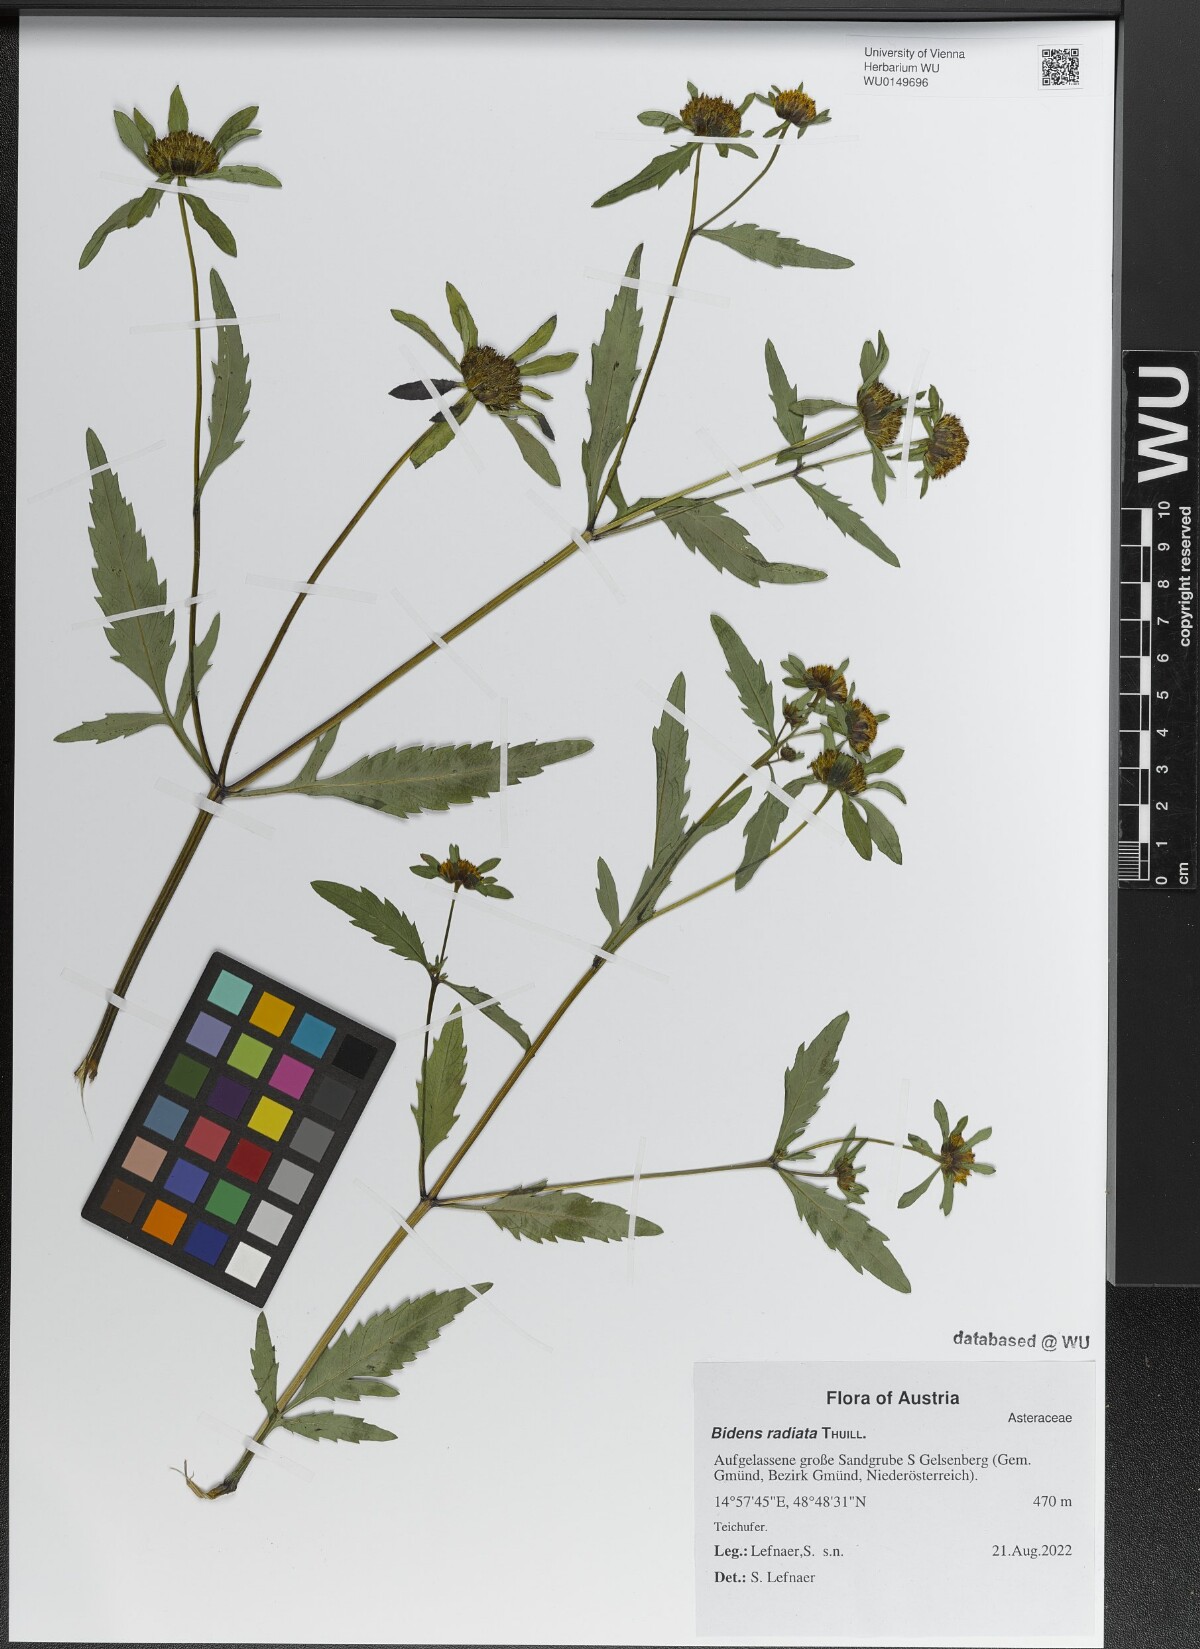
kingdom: Plantae
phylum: Tracheophyta
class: Magnoliopsida
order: Asterales
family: Asteraceae
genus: Bidens
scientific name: Bidens radiata
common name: Radiating bur-marigold
